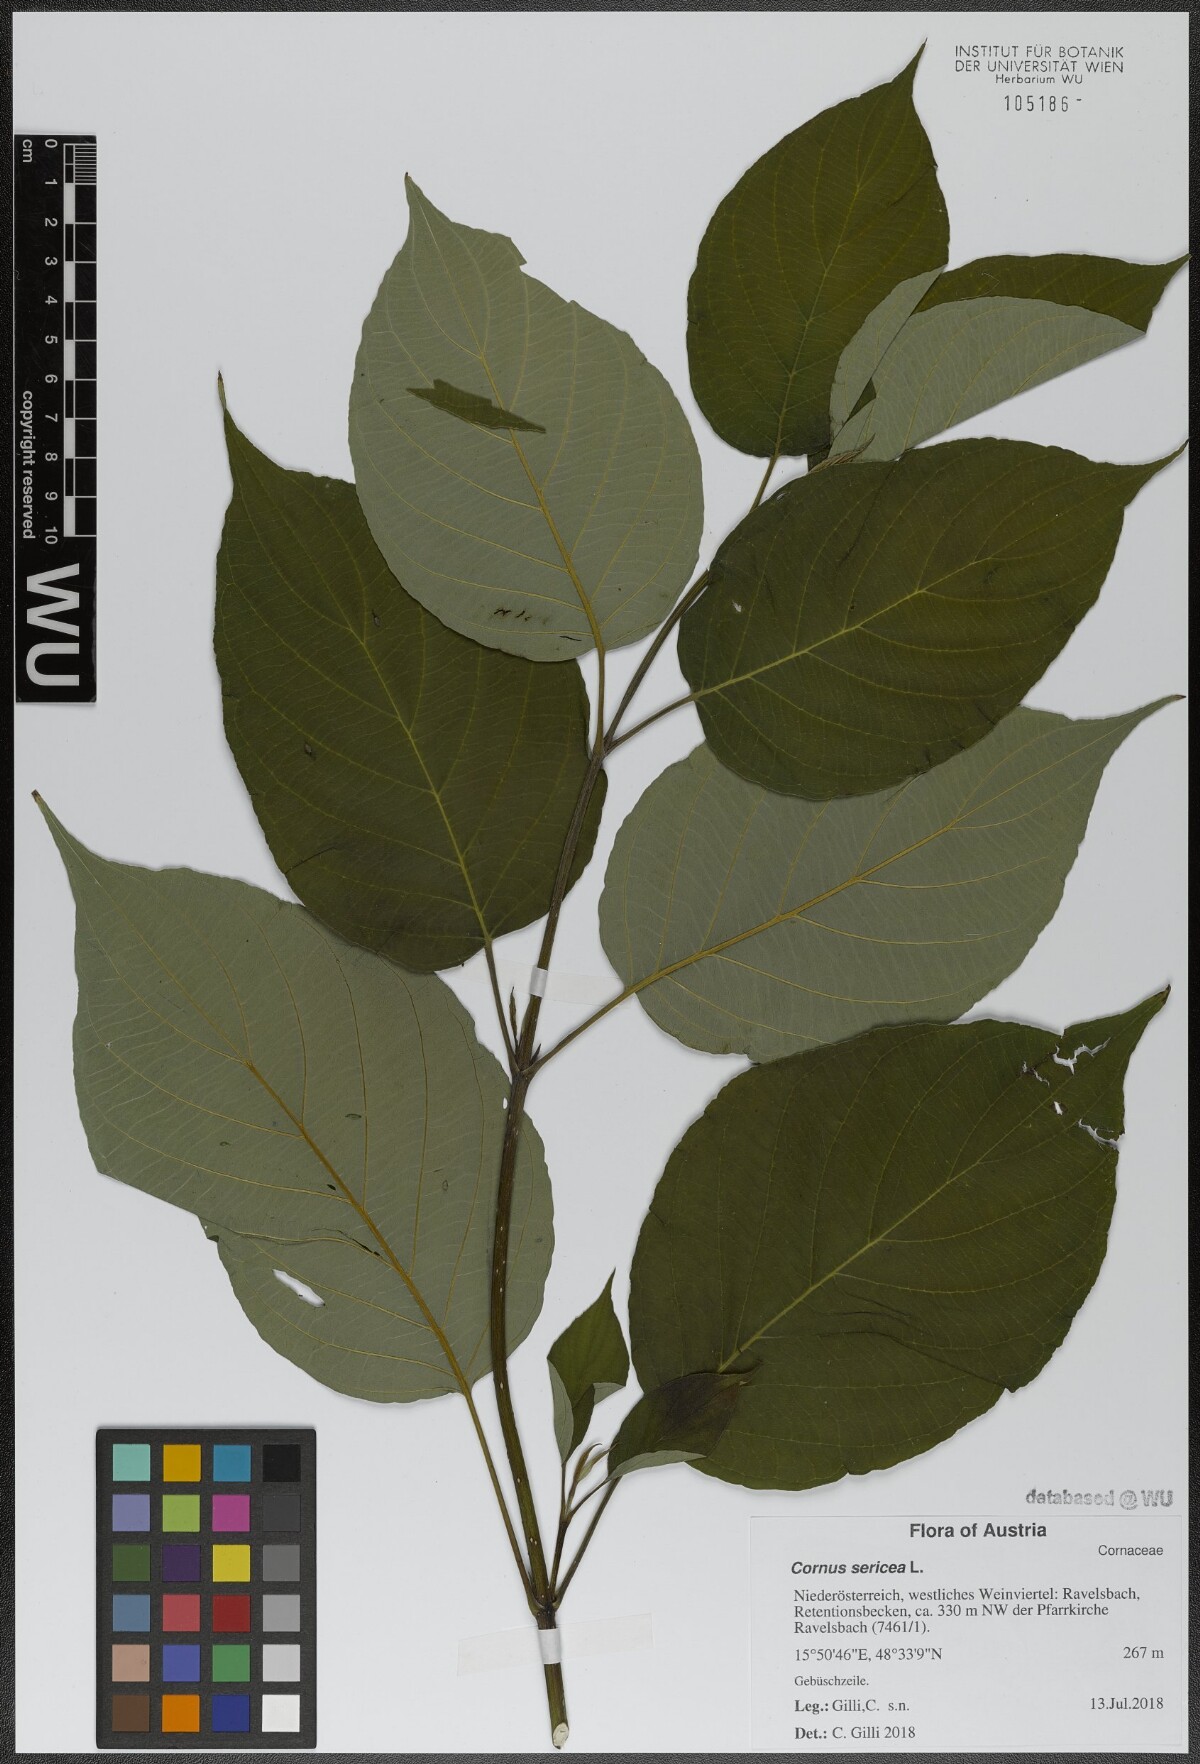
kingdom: Plantae
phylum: Tracheophyta
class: Magnoliopsida
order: Cornales
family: Cornaceae
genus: Cornus
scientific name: Cornus sericea
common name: Red-osier dogwood
